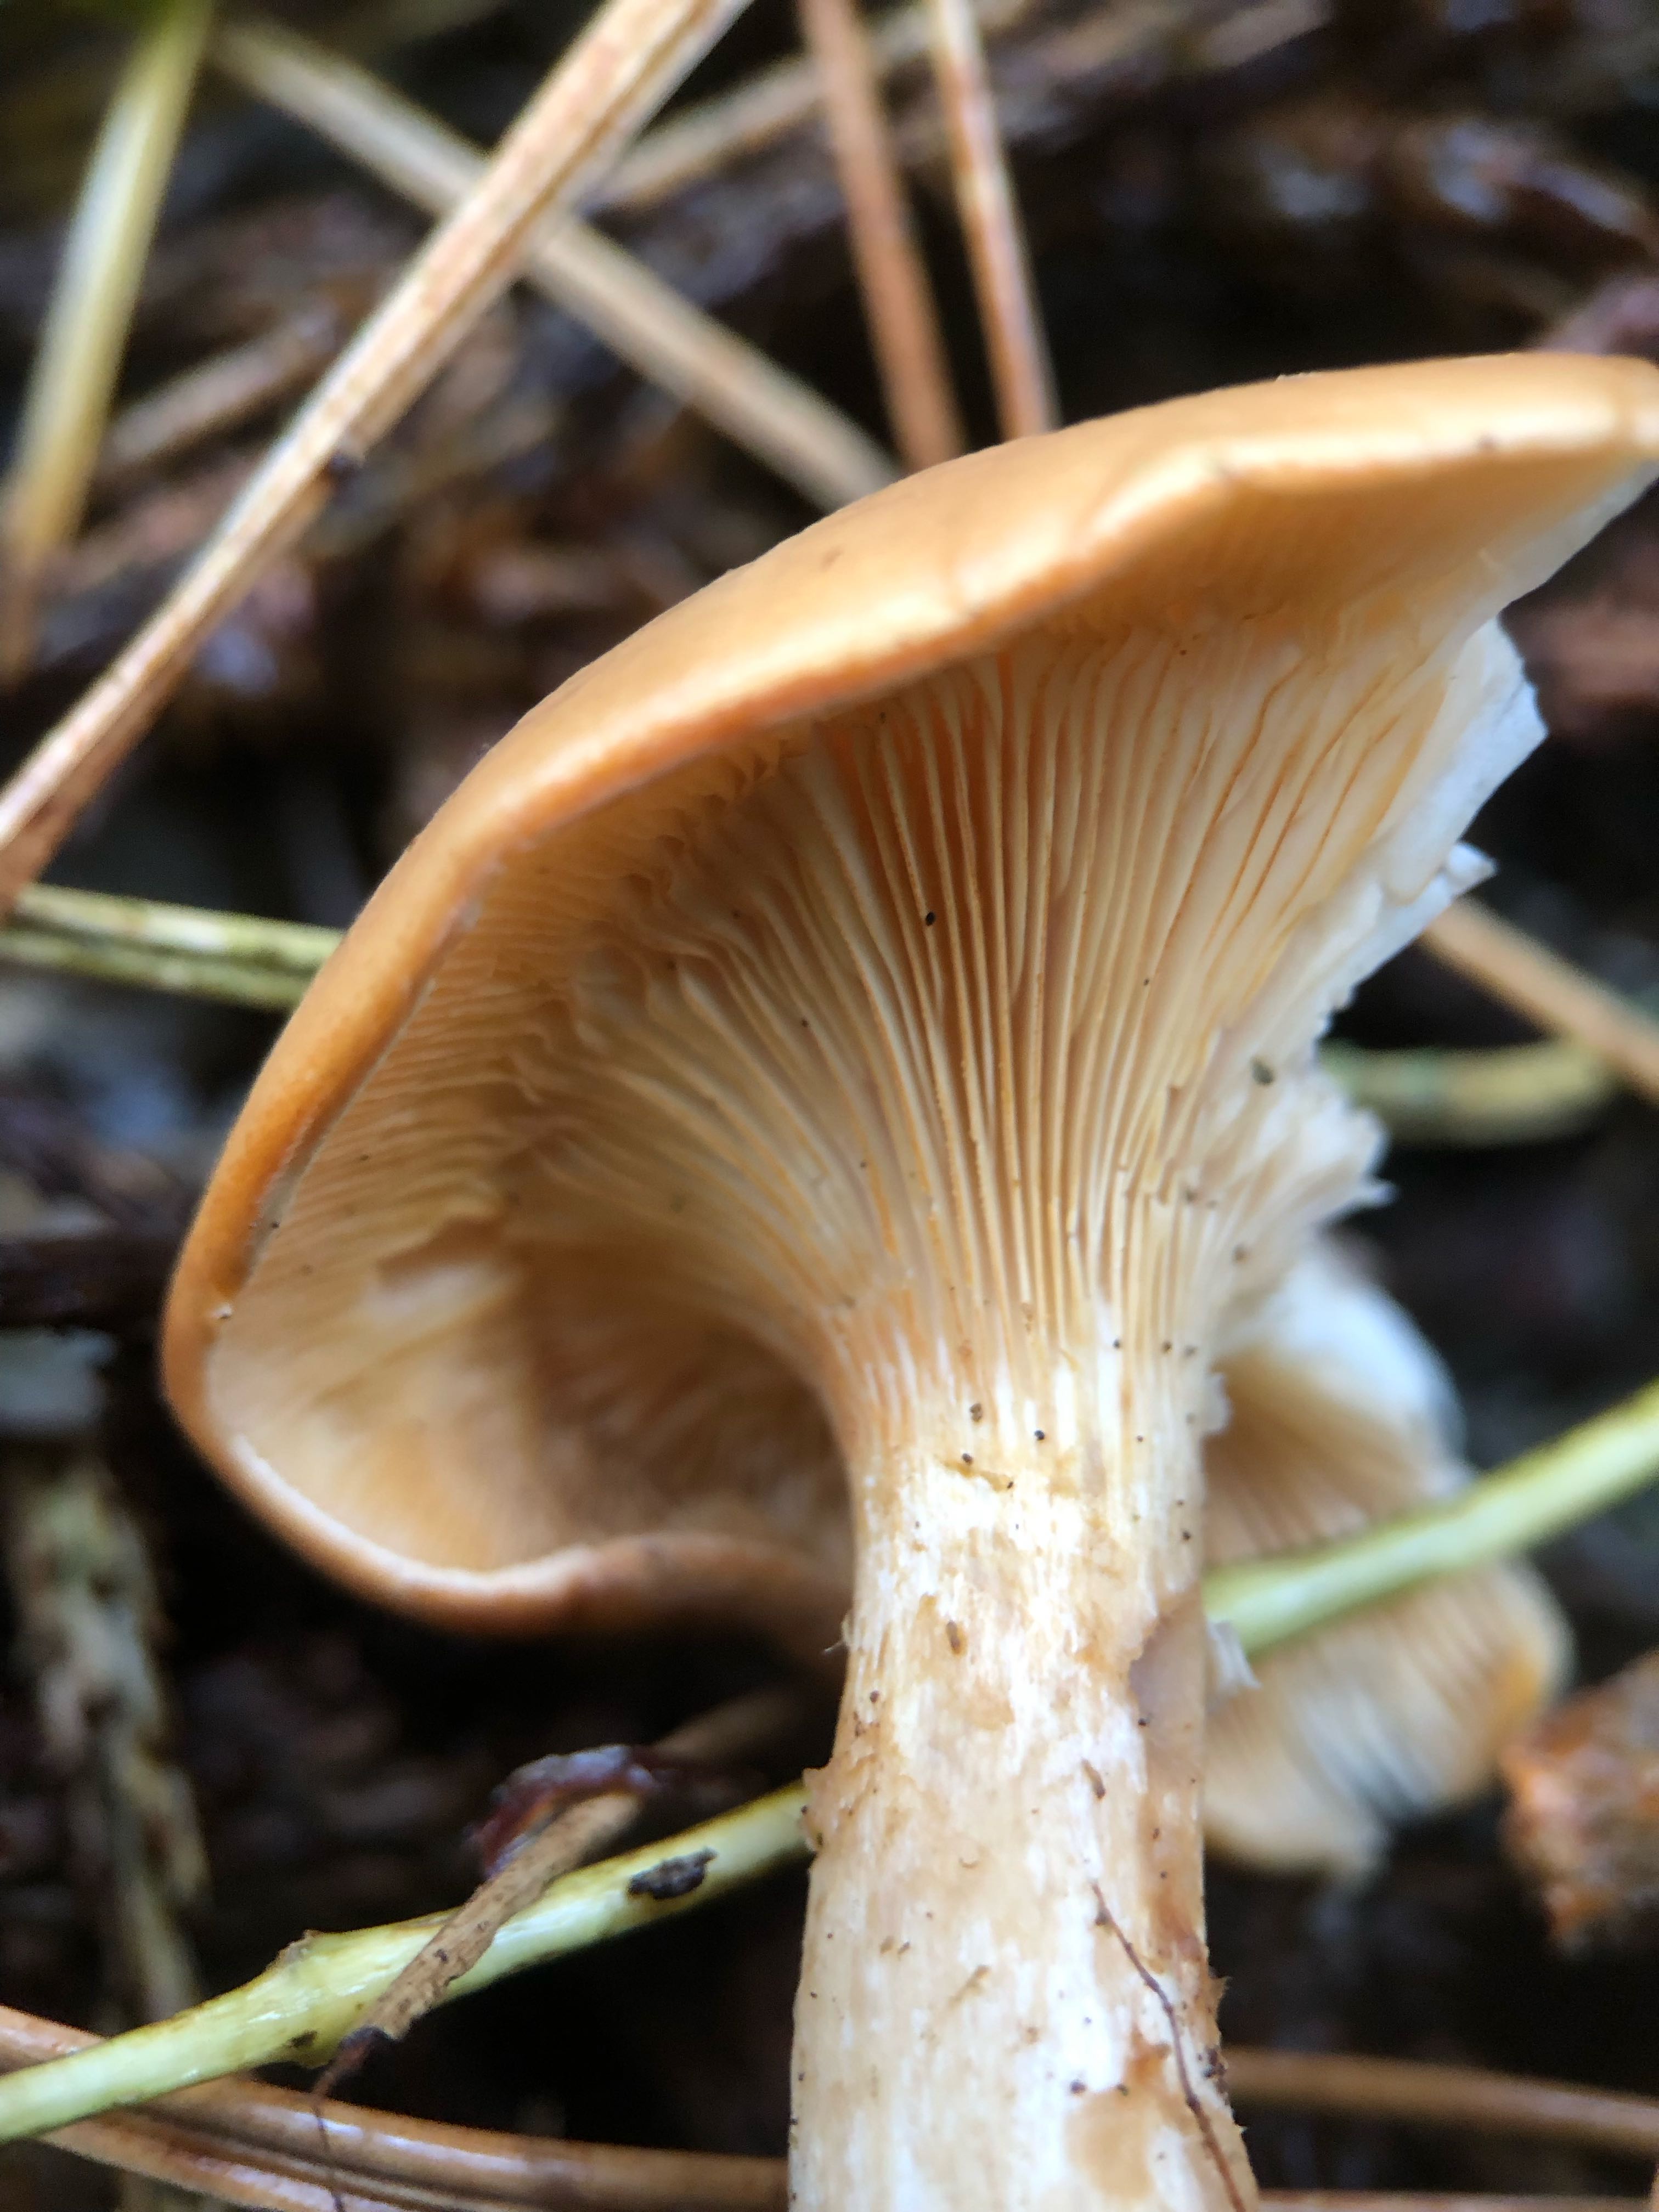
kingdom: Fungi
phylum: Basidiomycota
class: Agaricomycetes
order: Agaricales
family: Tricholomataceae
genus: Paralepista
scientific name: Paralepista flaccida
